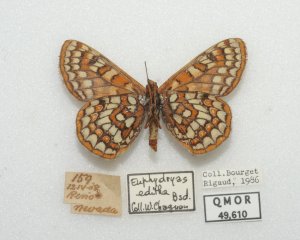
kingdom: Animalia
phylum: Arthropoda
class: Insecta
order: Lepidoptera
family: Nymphalidae
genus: Occidryas
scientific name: Occidryas editha
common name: Edith's Checkerspot
